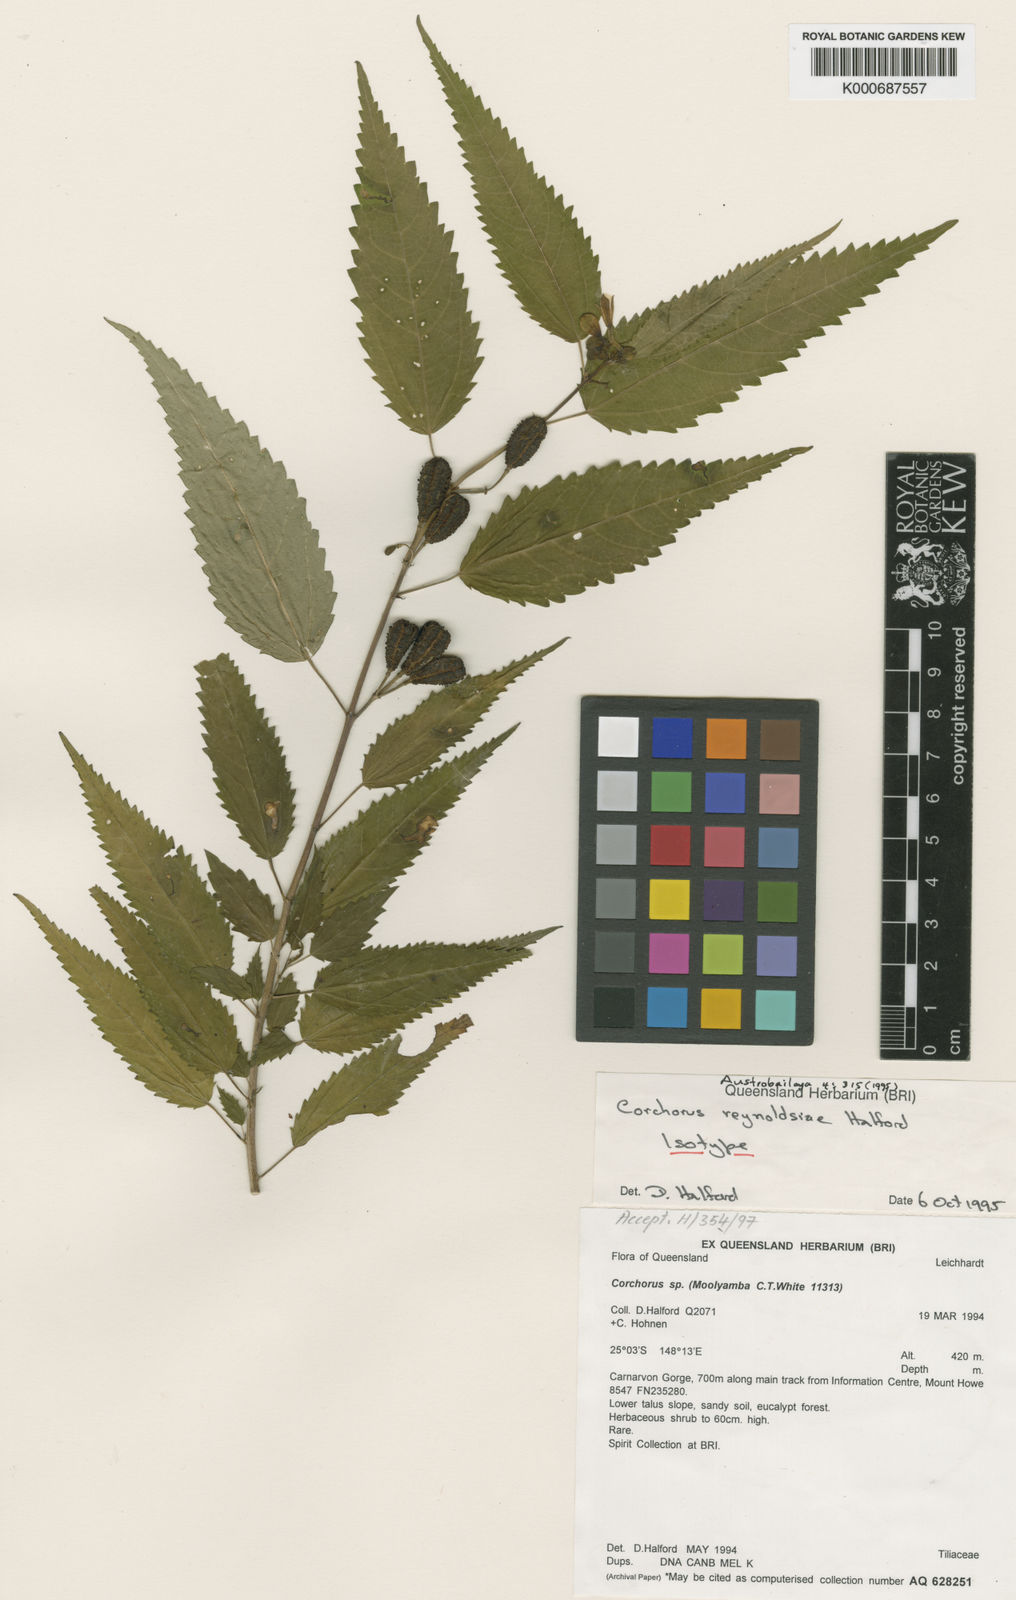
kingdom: Plantae
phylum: Tracheophyta
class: Magnoliopsida
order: Malvales
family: Malvaceae
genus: Corchorus
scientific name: Corchorus reynoldsiae
